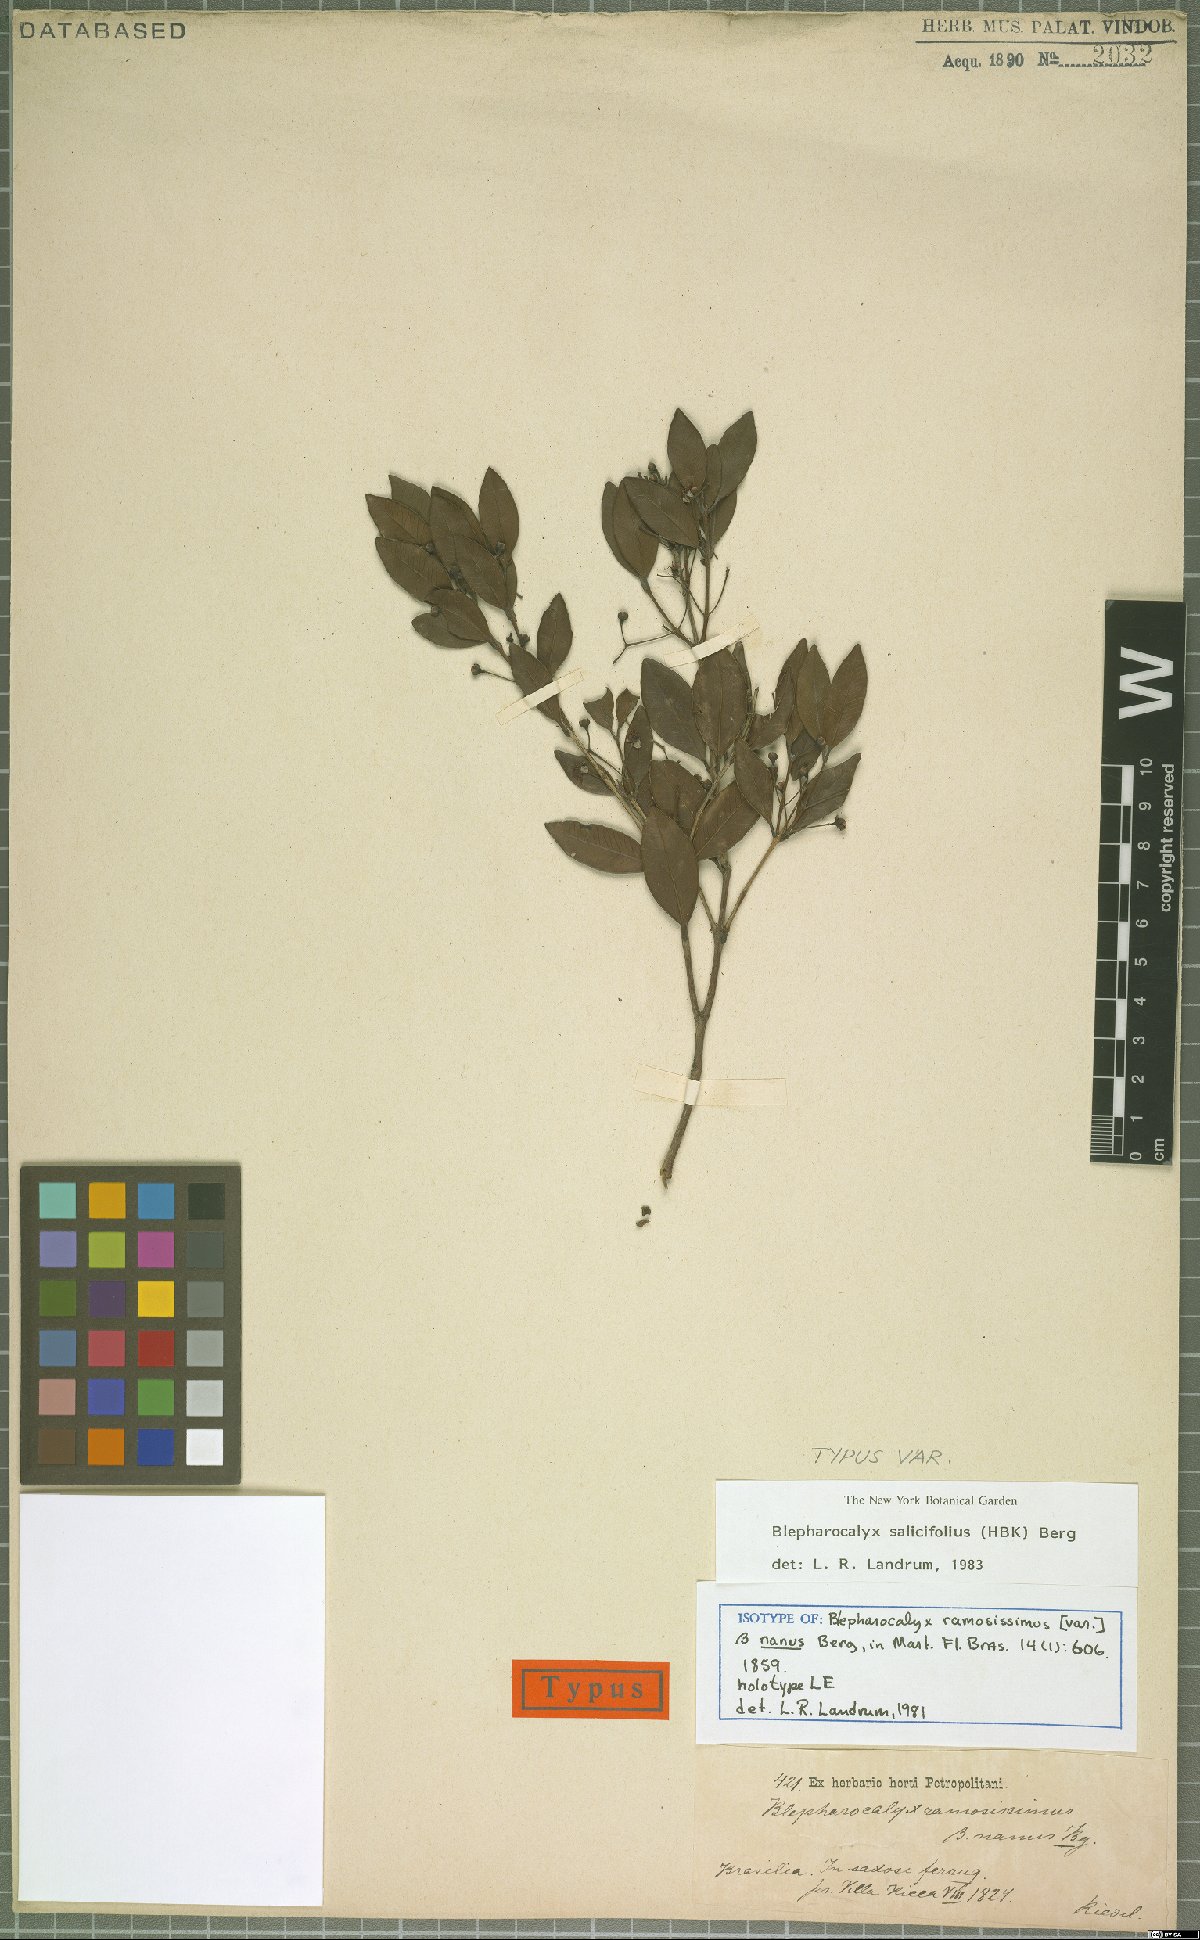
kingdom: Plantae
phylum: Tracheophyta
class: Magnoliopsida
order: Myrtales
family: Myrtaceae
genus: Blepharocalyx
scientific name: Blepharocalyx salicifolius
